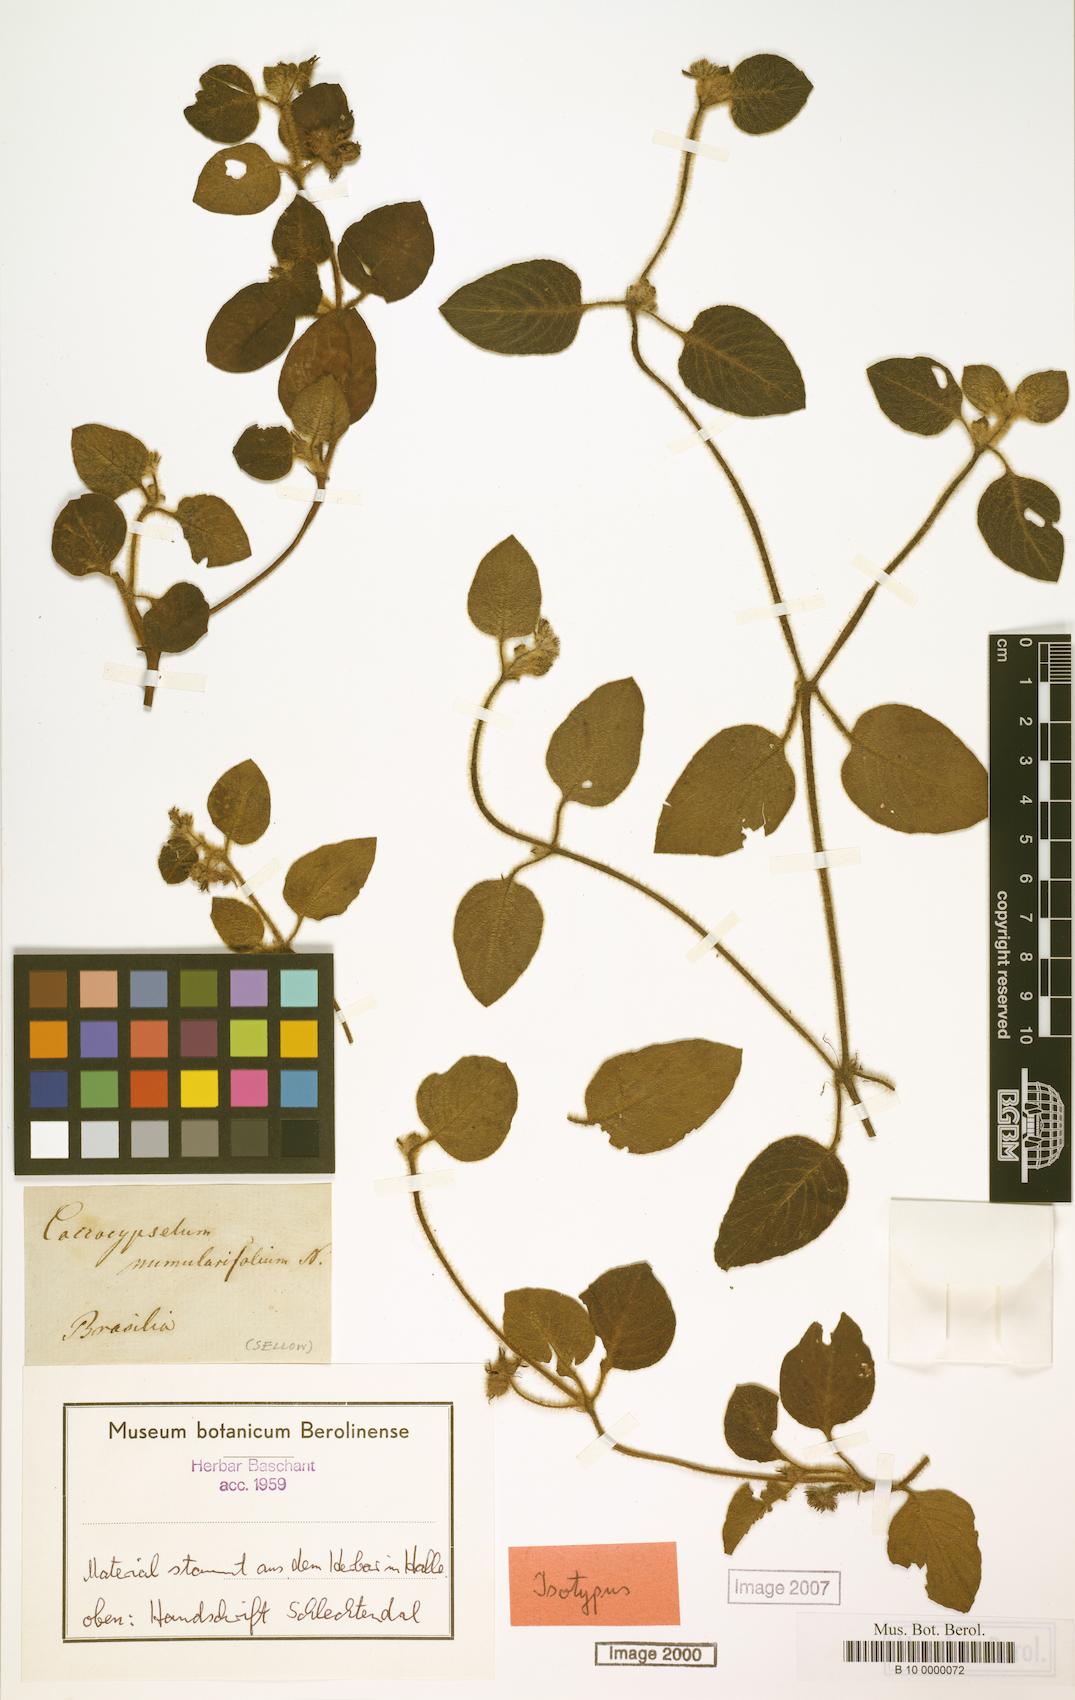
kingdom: Plantae
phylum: Tracheophyta
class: Magnoliopsida
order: Gentianales
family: Rubiaceae
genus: Coccocypselum
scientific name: Coccocypselum cordifolium
